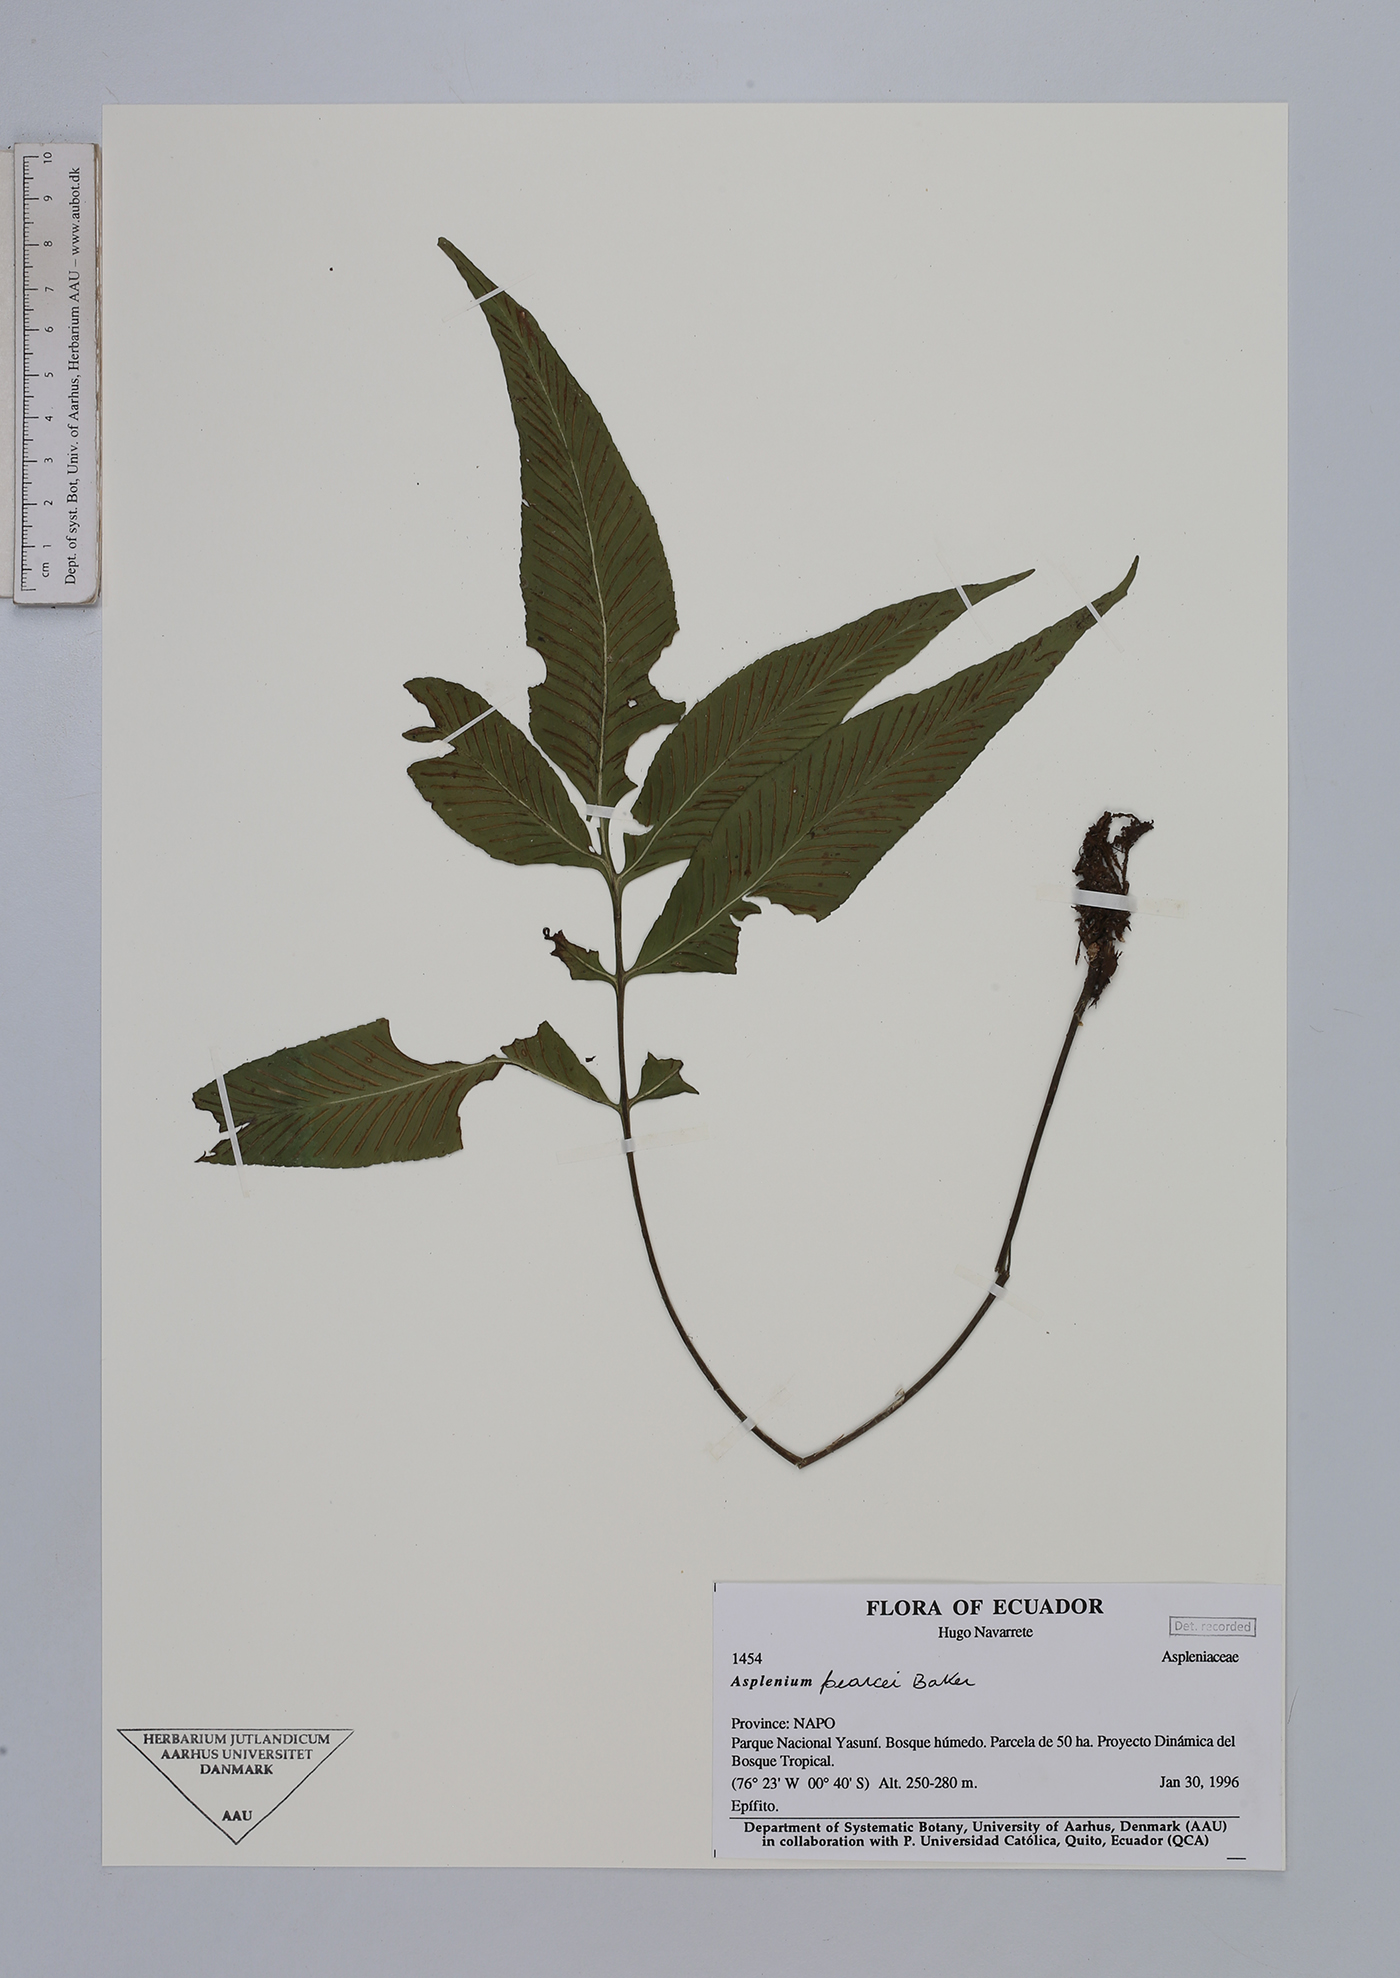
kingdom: Plantae
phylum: Tracheophyta
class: Polypodiopsida
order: Polypodiales
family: Aspleniaceae
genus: Asplenium
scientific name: Asplenium
